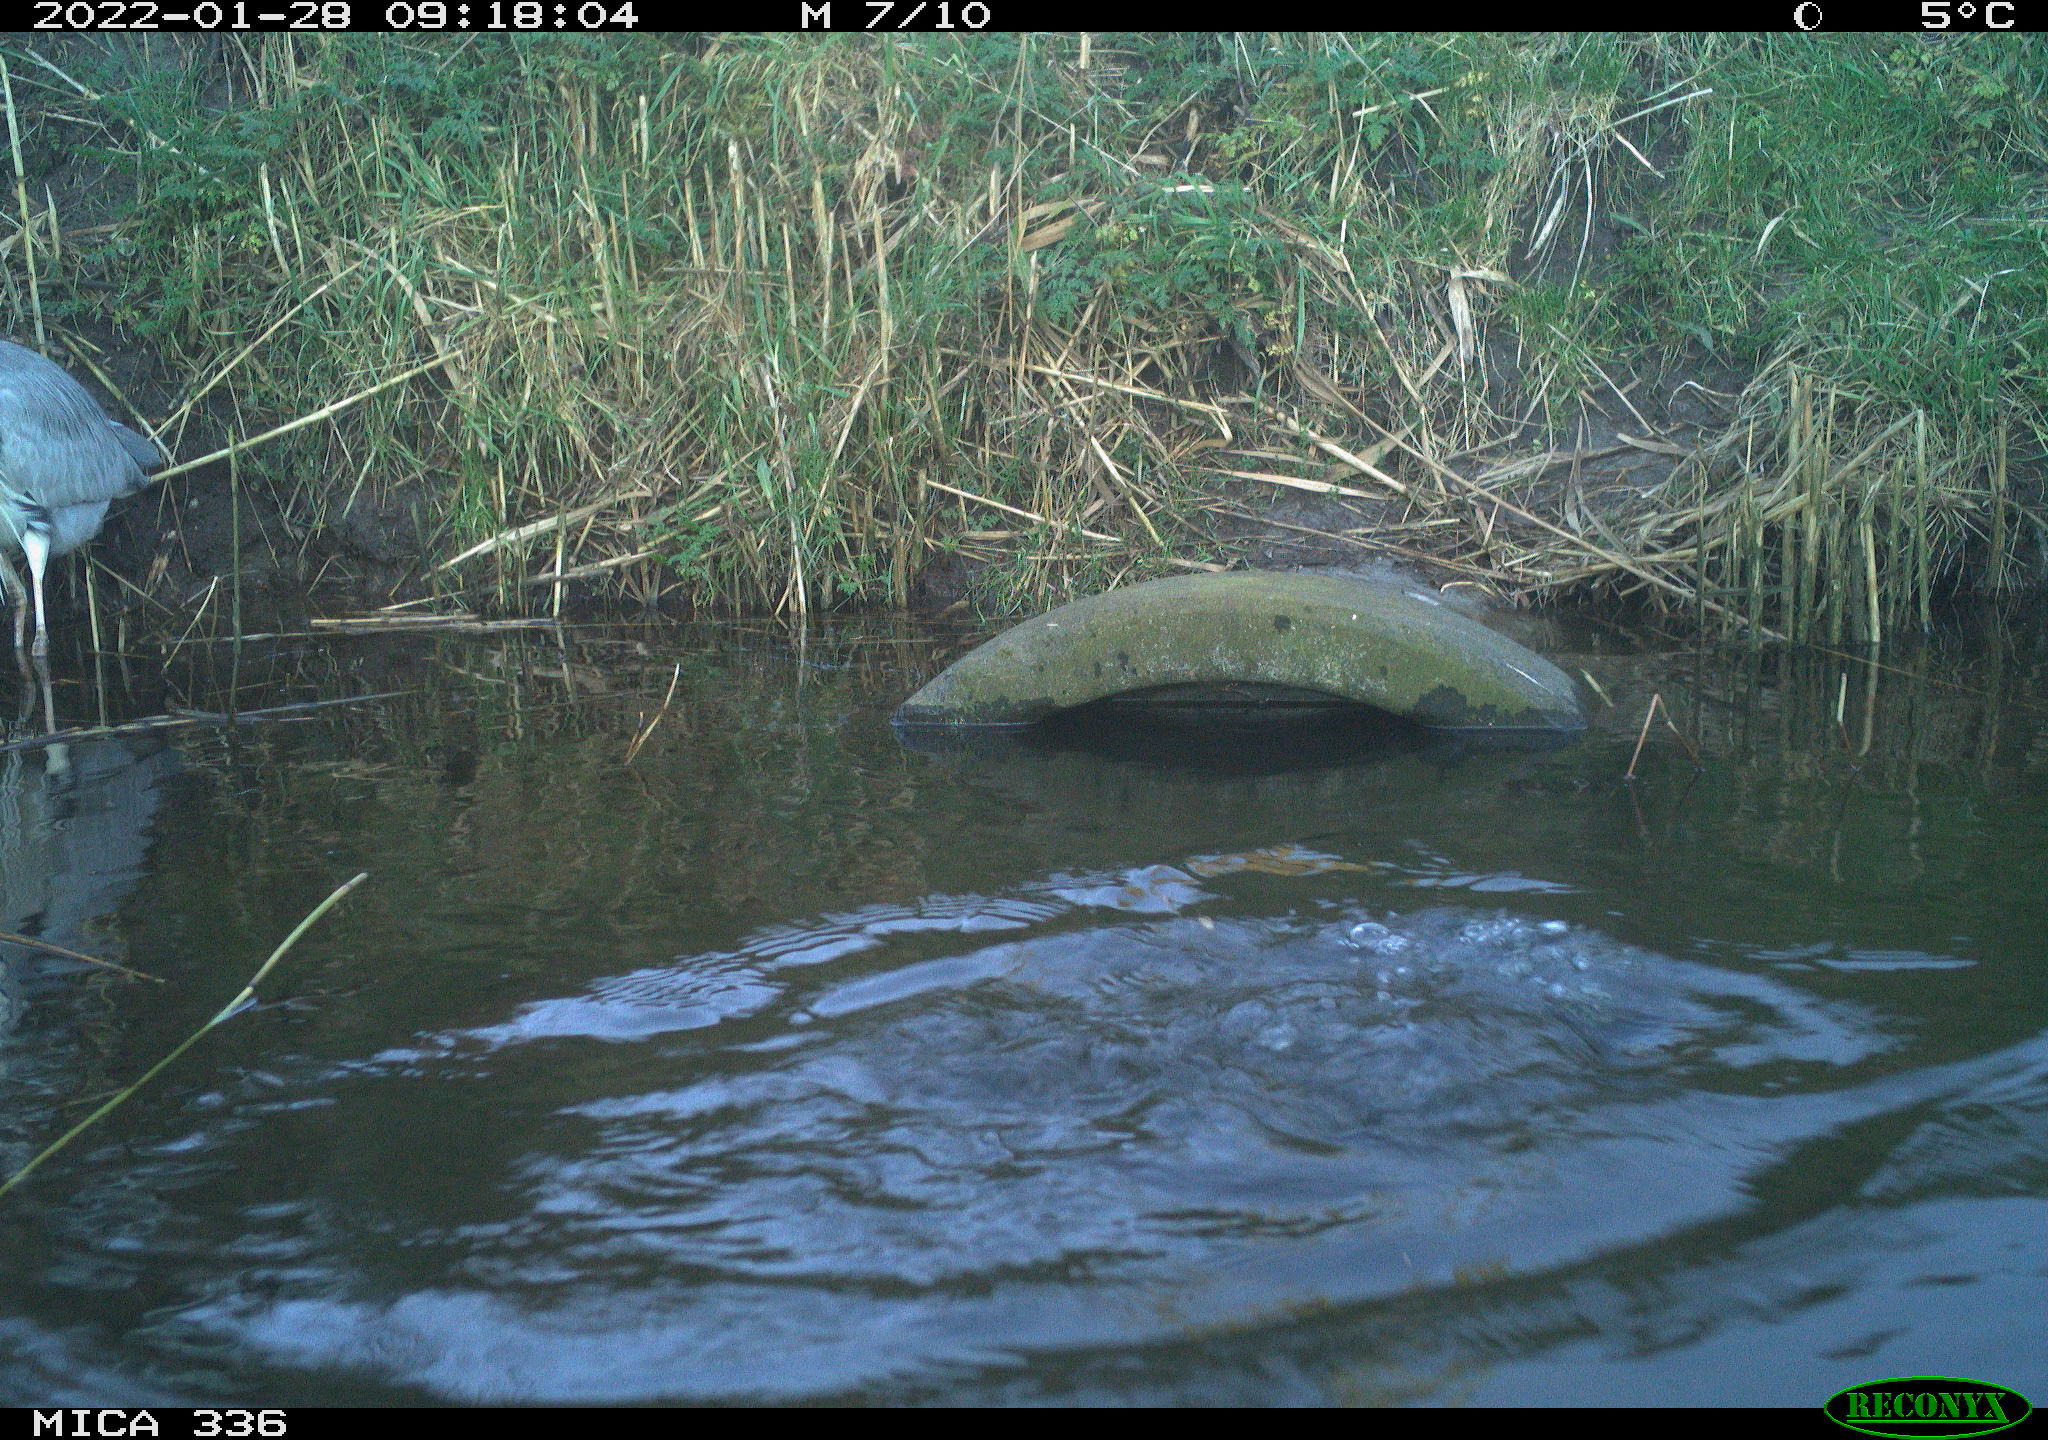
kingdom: Animalia
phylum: Chordata
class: Aves
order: Suliformes
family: Phalacrocoracidae
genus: Phalacrocorax
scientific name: Phalacrocorax carbo
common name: Great cormorant
